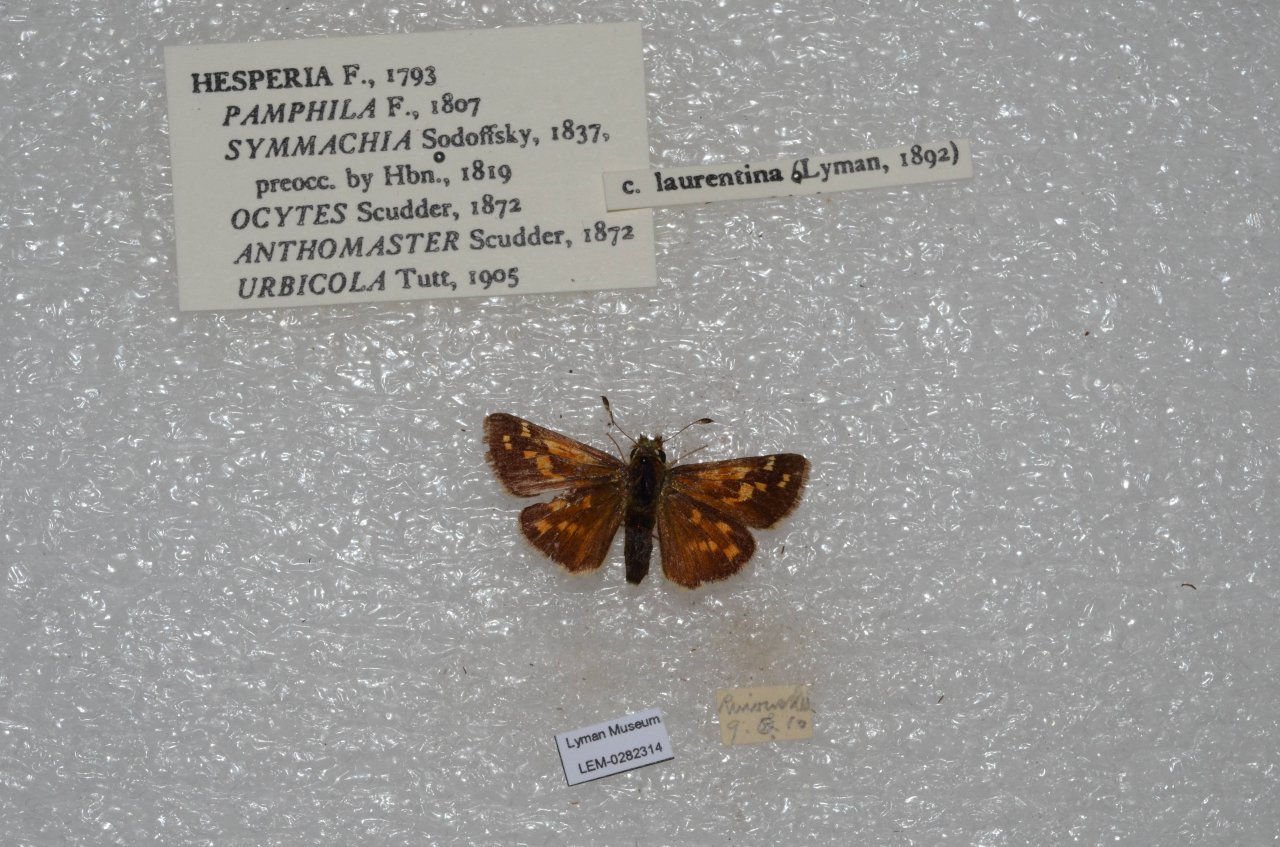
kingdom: Animalia
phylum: Arthropoda
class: Insecta
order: Lepidoptera
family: Hesperiidae
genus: Hesperia
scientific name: Hesperia comma
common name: Common Branded Skipper
